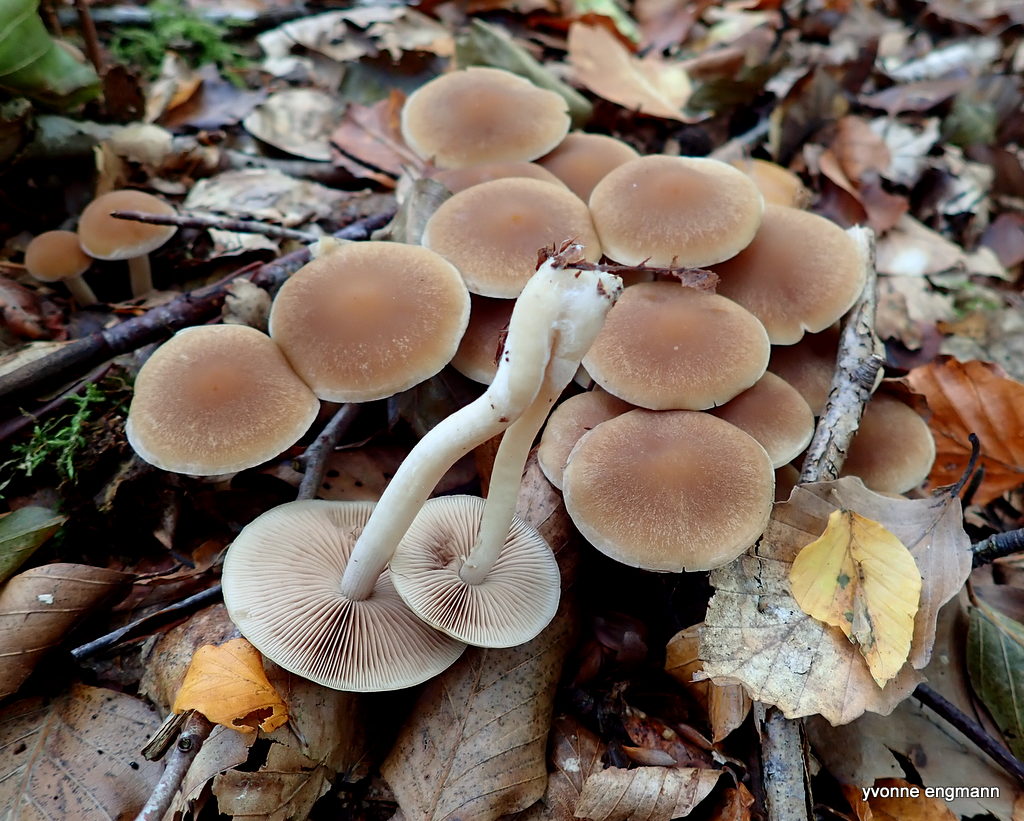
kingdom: Fungi
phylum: Basidiomycota
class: Agaricomycetes
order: Agaricales
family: Psathyrellaceae
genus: Psathyrella
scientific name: Psathyrella piluliformis
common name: lysstokket mørkhat
